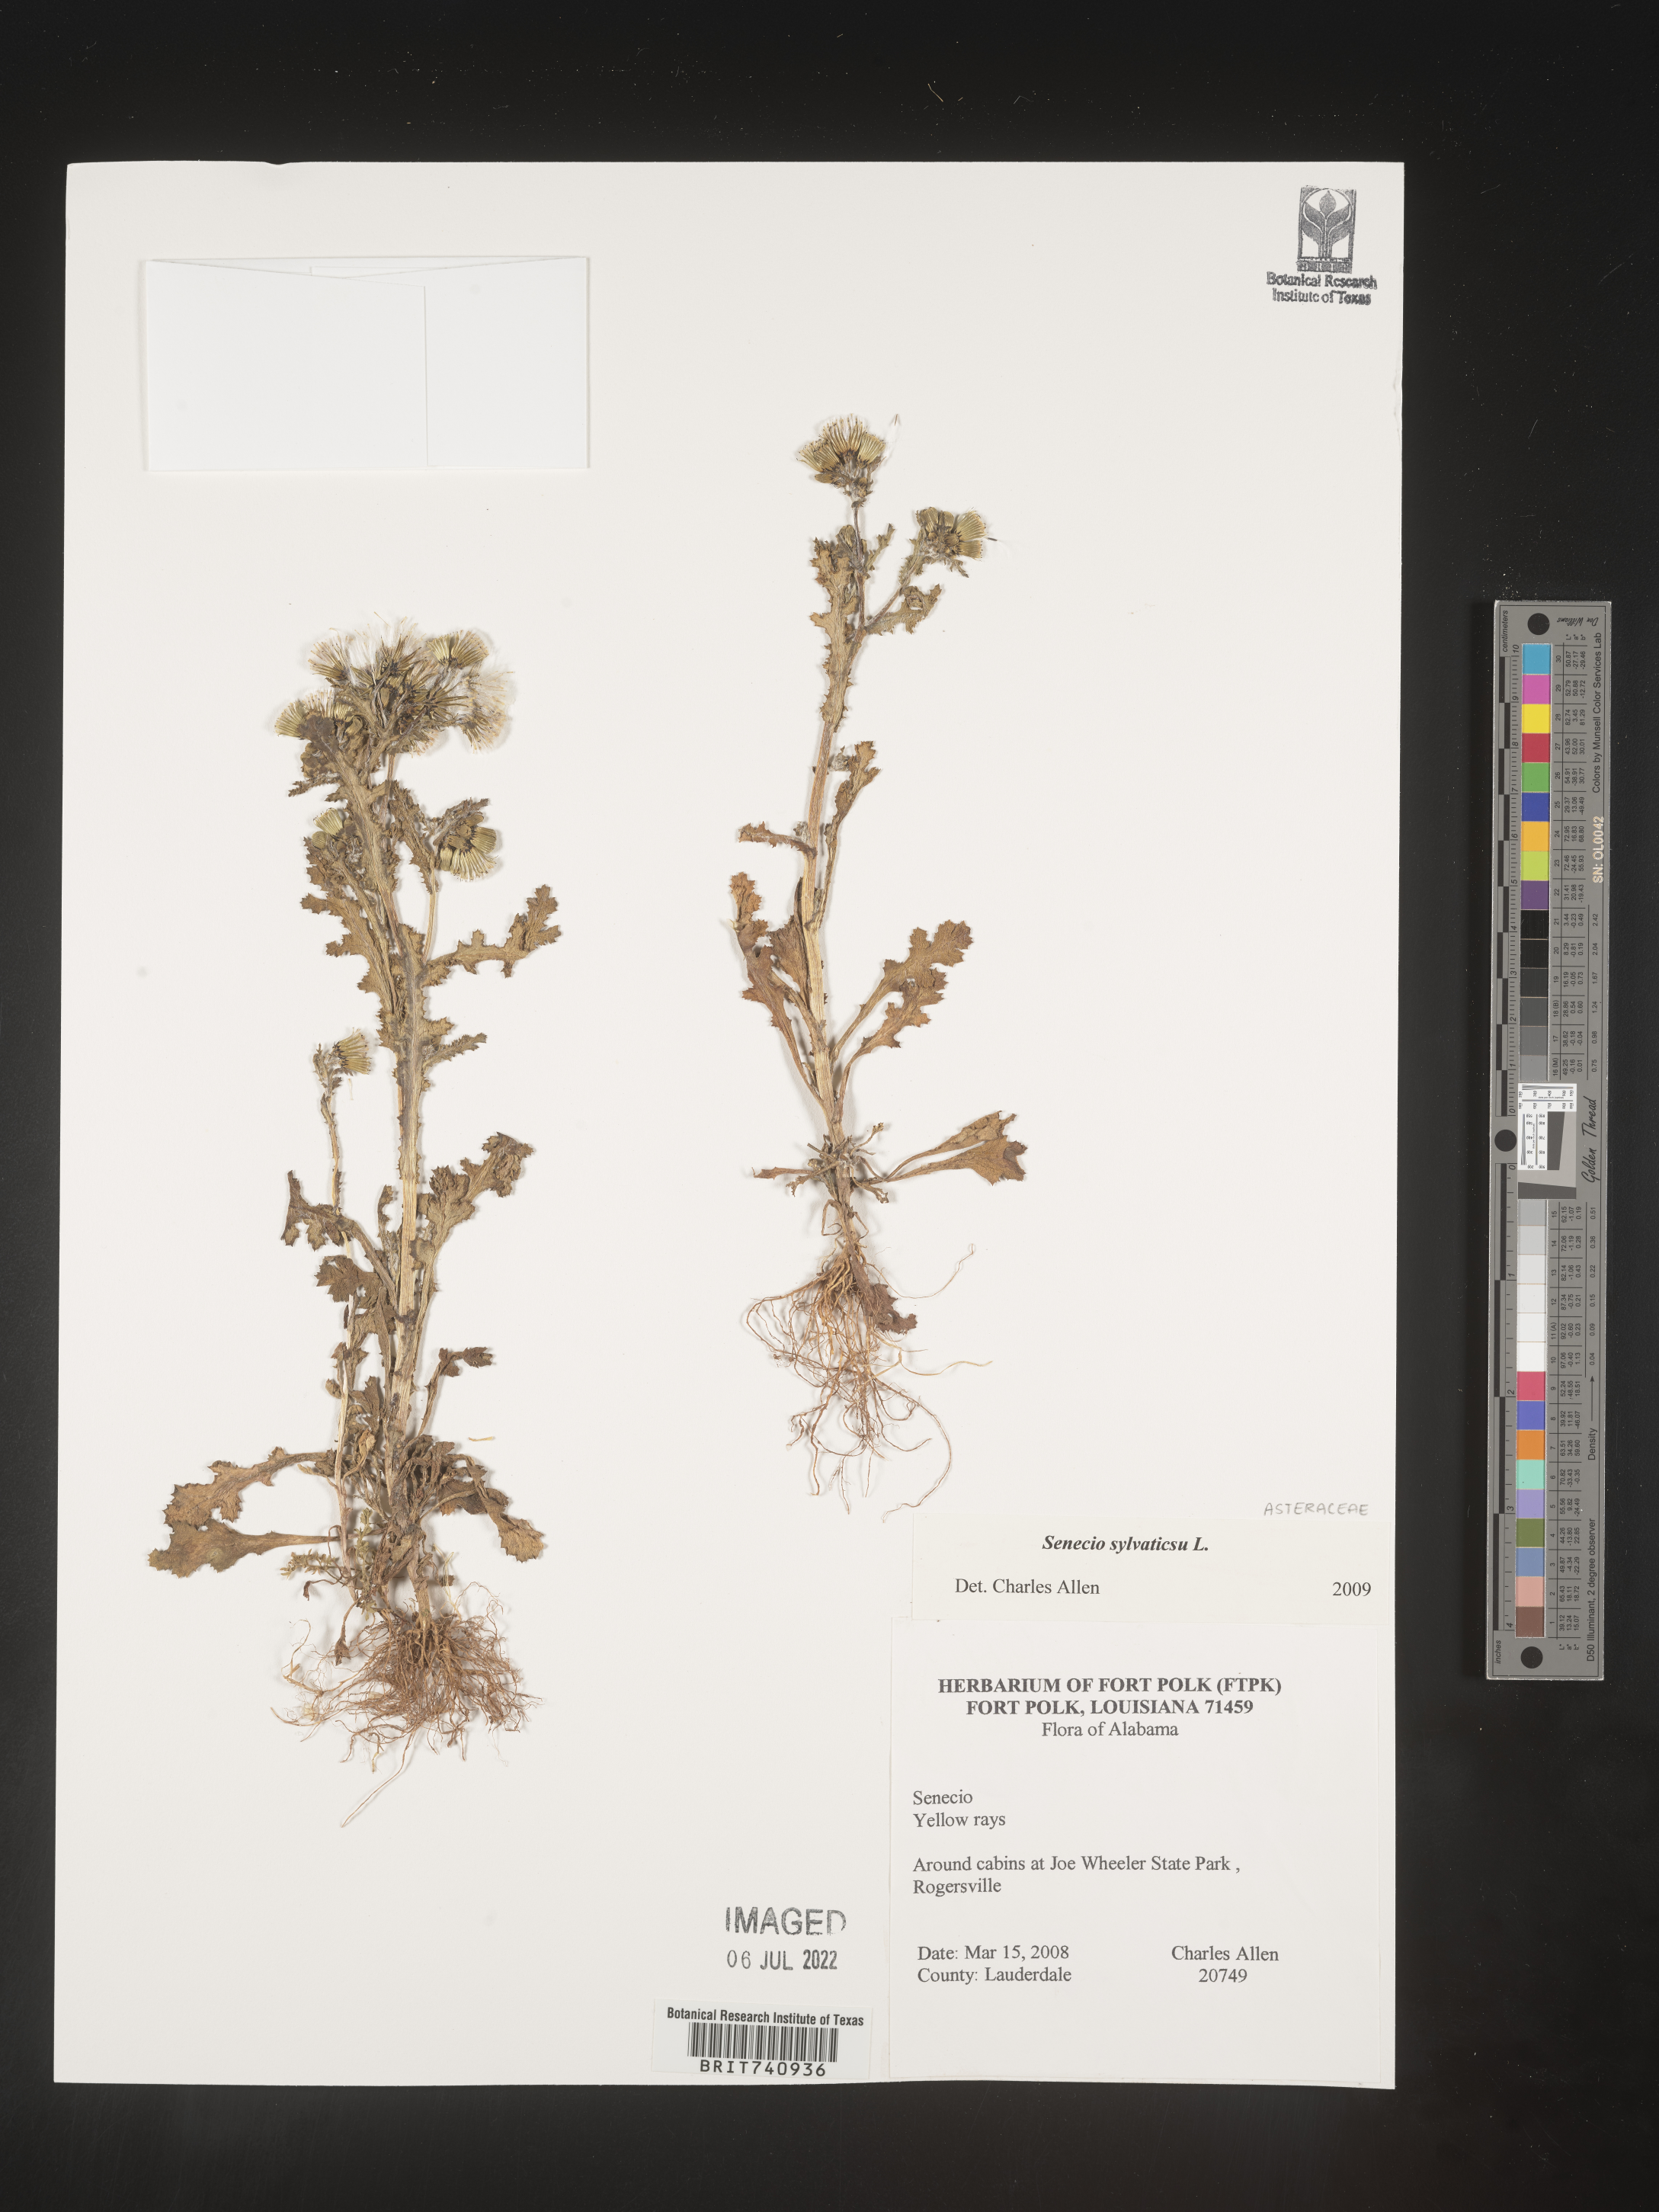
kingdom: Plantae
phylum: Tracheophyta
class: Magnoliopsida
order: Asterales
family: Asteraceae
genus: Senecio
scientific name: Senecio sylvaticus
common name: Woodland ragwort
